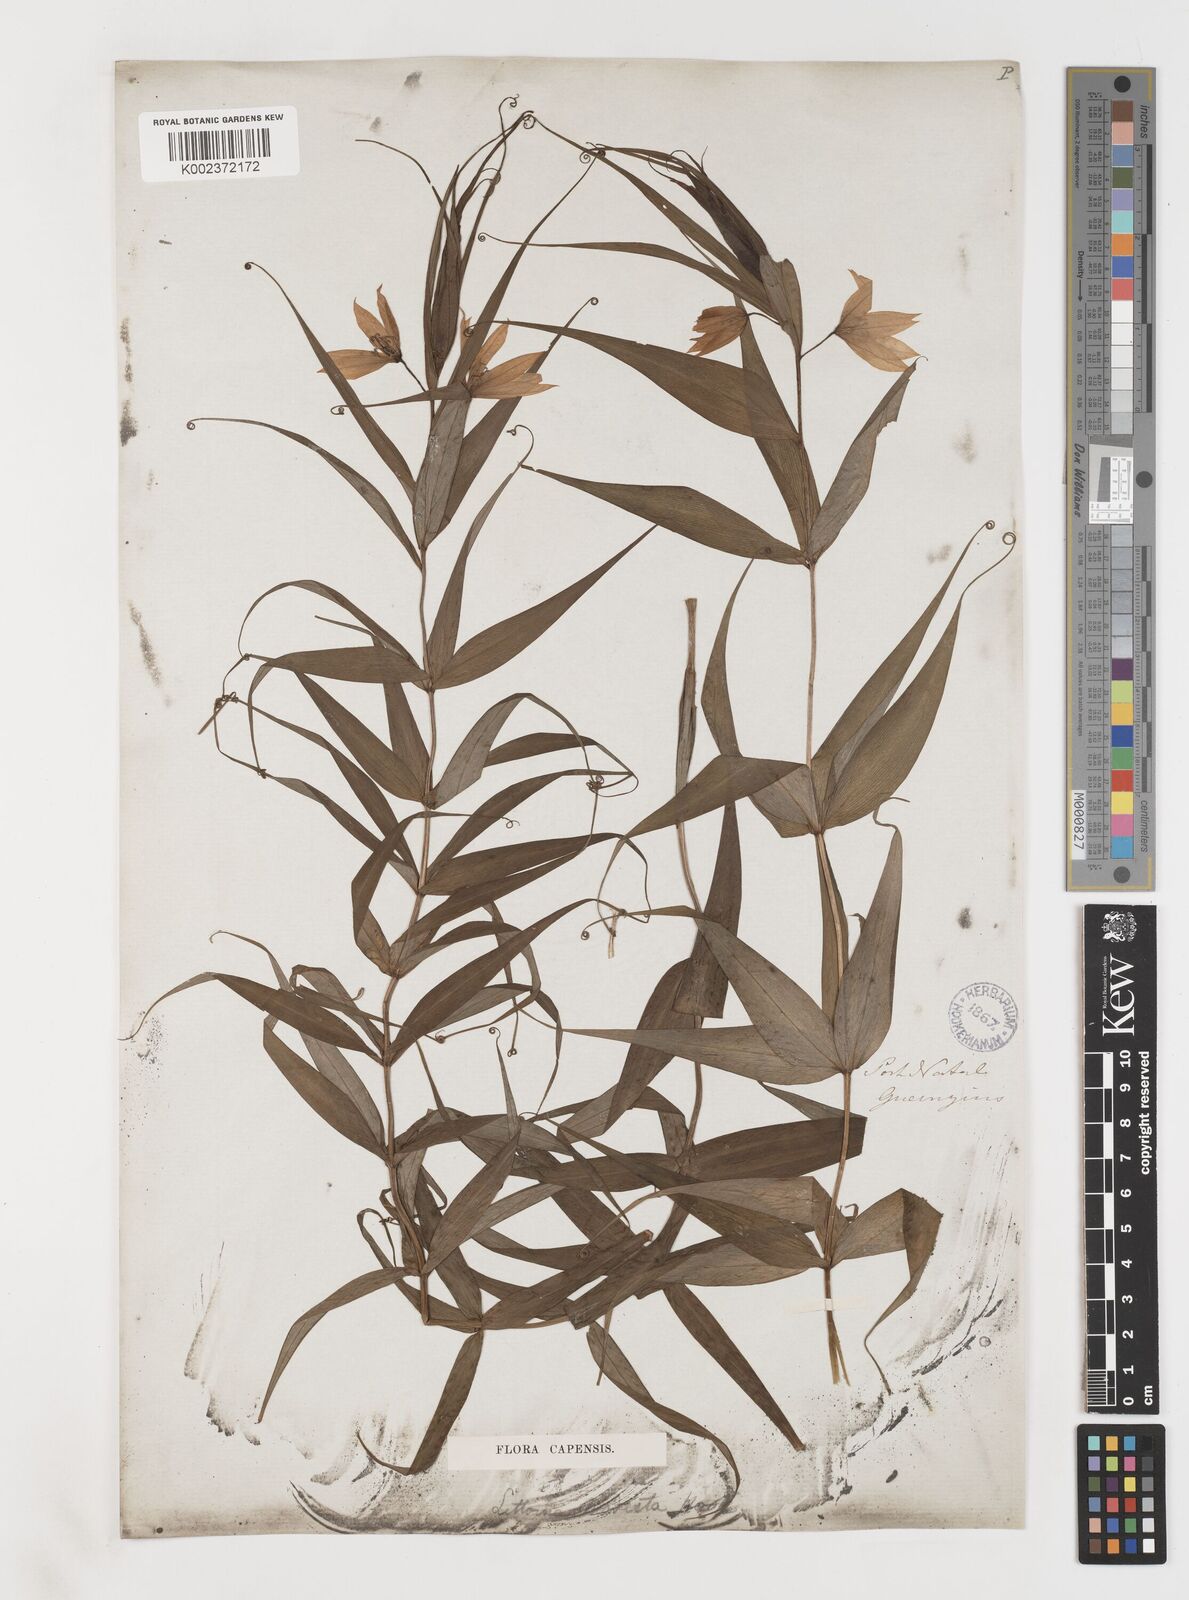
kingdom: Plantae
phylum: Tracheophyta
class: Liliopsida
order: Liliales
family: Colchicaceae
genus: Gloriosa
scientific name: Gloriosa modesta
